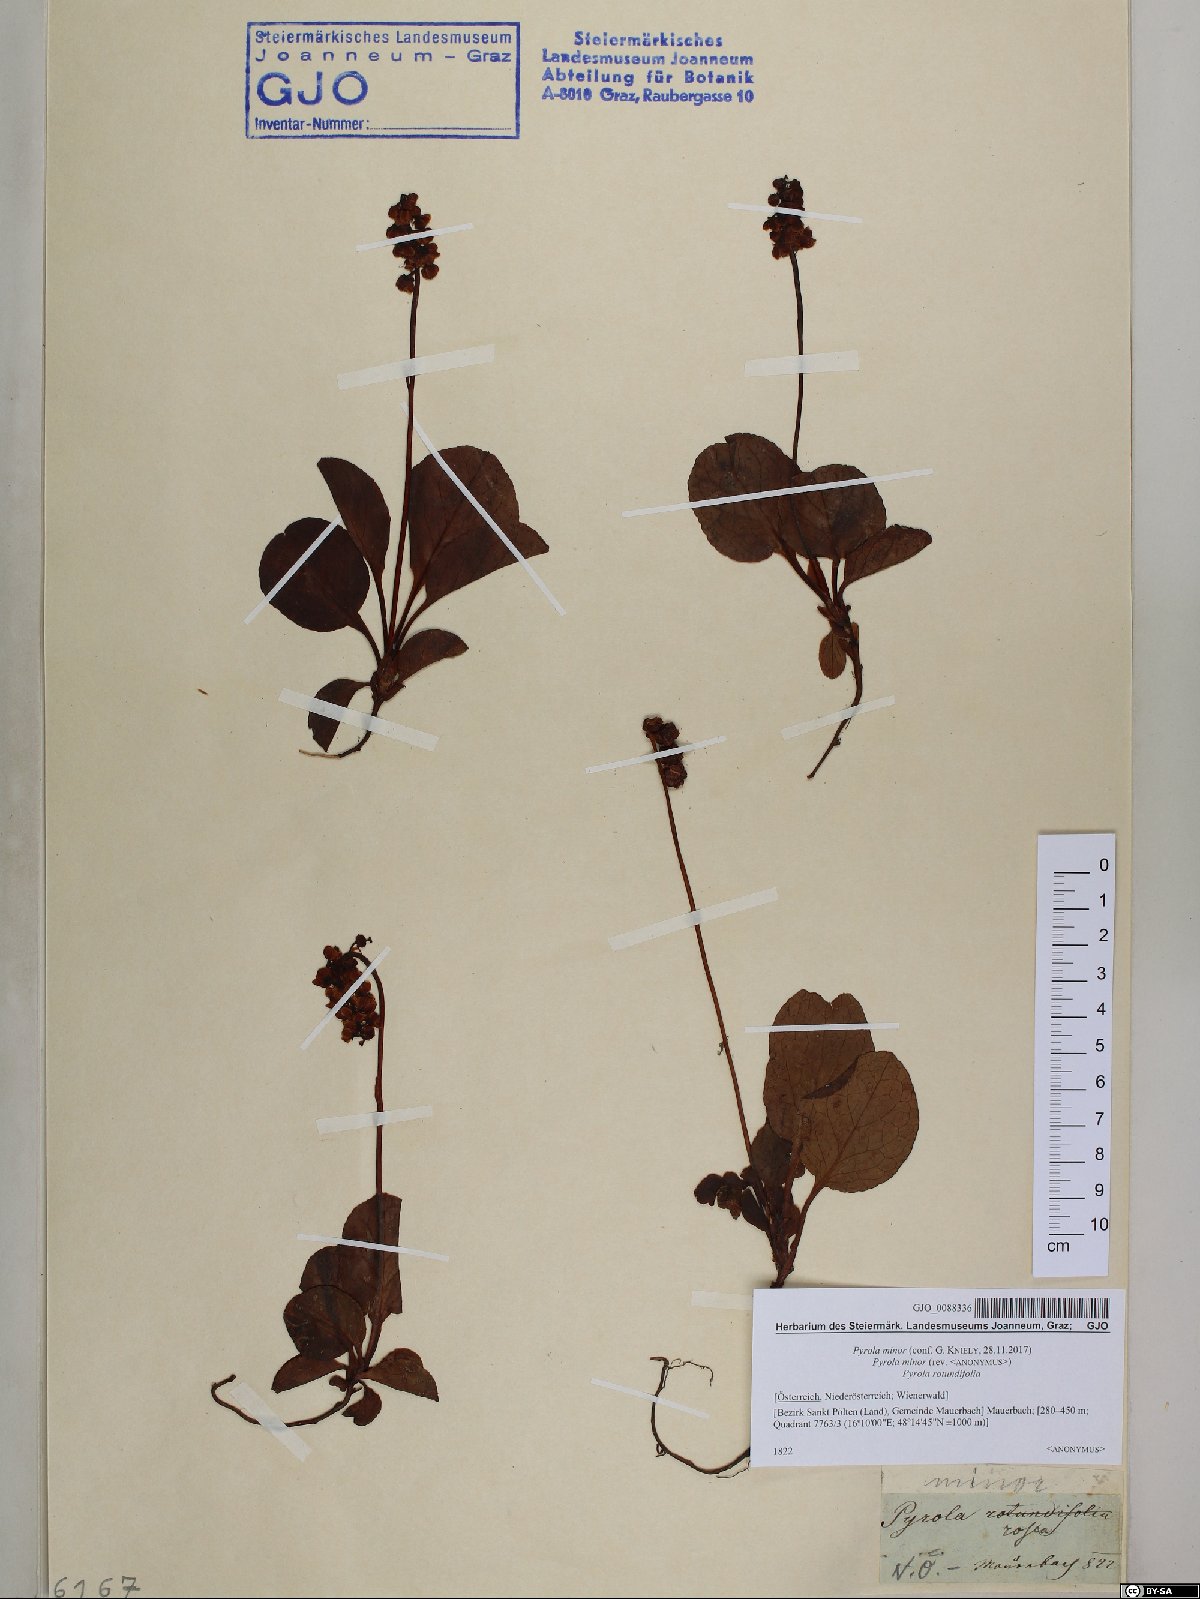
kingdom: Plantae
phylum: Tracheophyta
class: Magnoliopsida
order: Ericales
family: Ericaceae
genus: Pyrola
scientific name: Pyrola minor
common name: Common wintergreen
